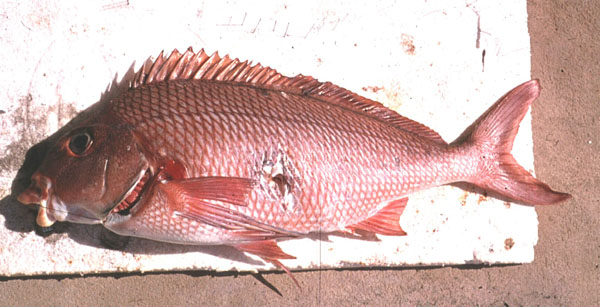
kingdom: Animalia
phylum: Chordata
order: Perciformes
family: Cheilodactylidae
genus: Chirodactylus
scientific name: Chirodactylus jessicalenorum
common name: Natal fingerfin
